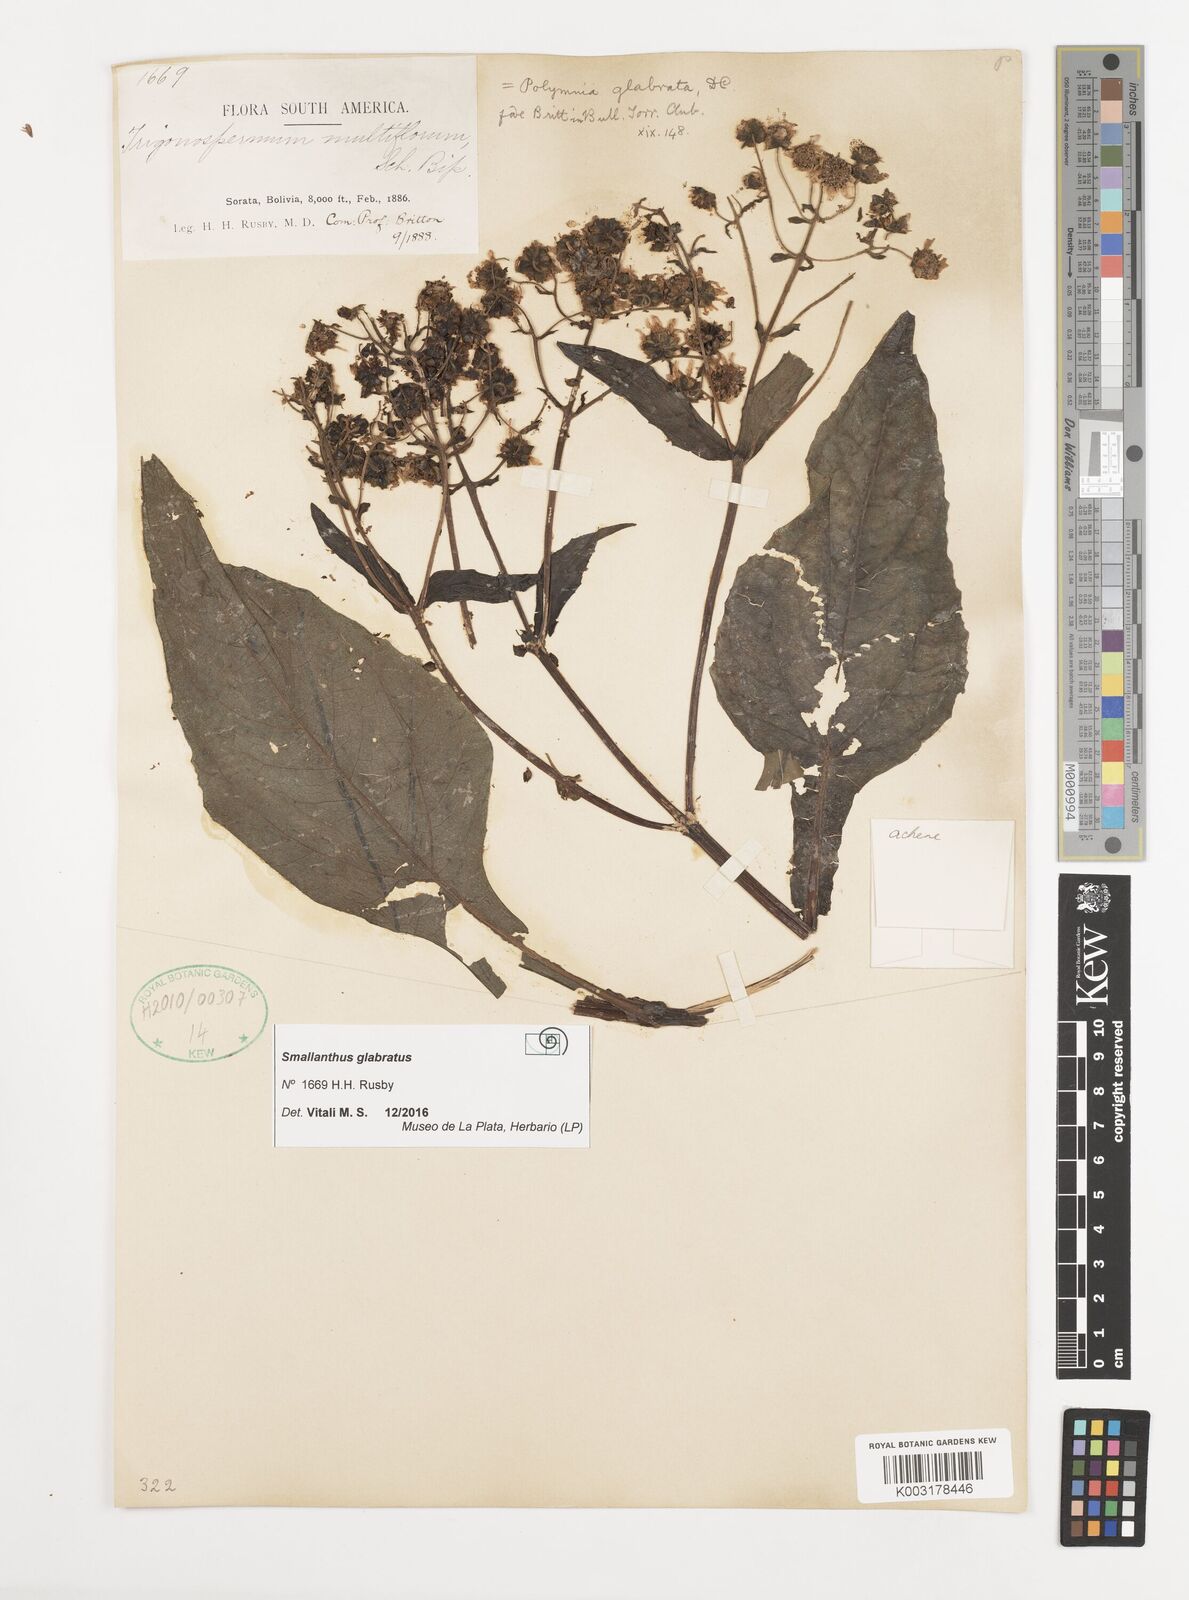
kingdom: Plantae
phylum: Tracheophyta
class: Magnoliopsida
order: Asterales
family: Asteraceae
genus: Smallanthus
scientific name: Smallanthus glabratus
